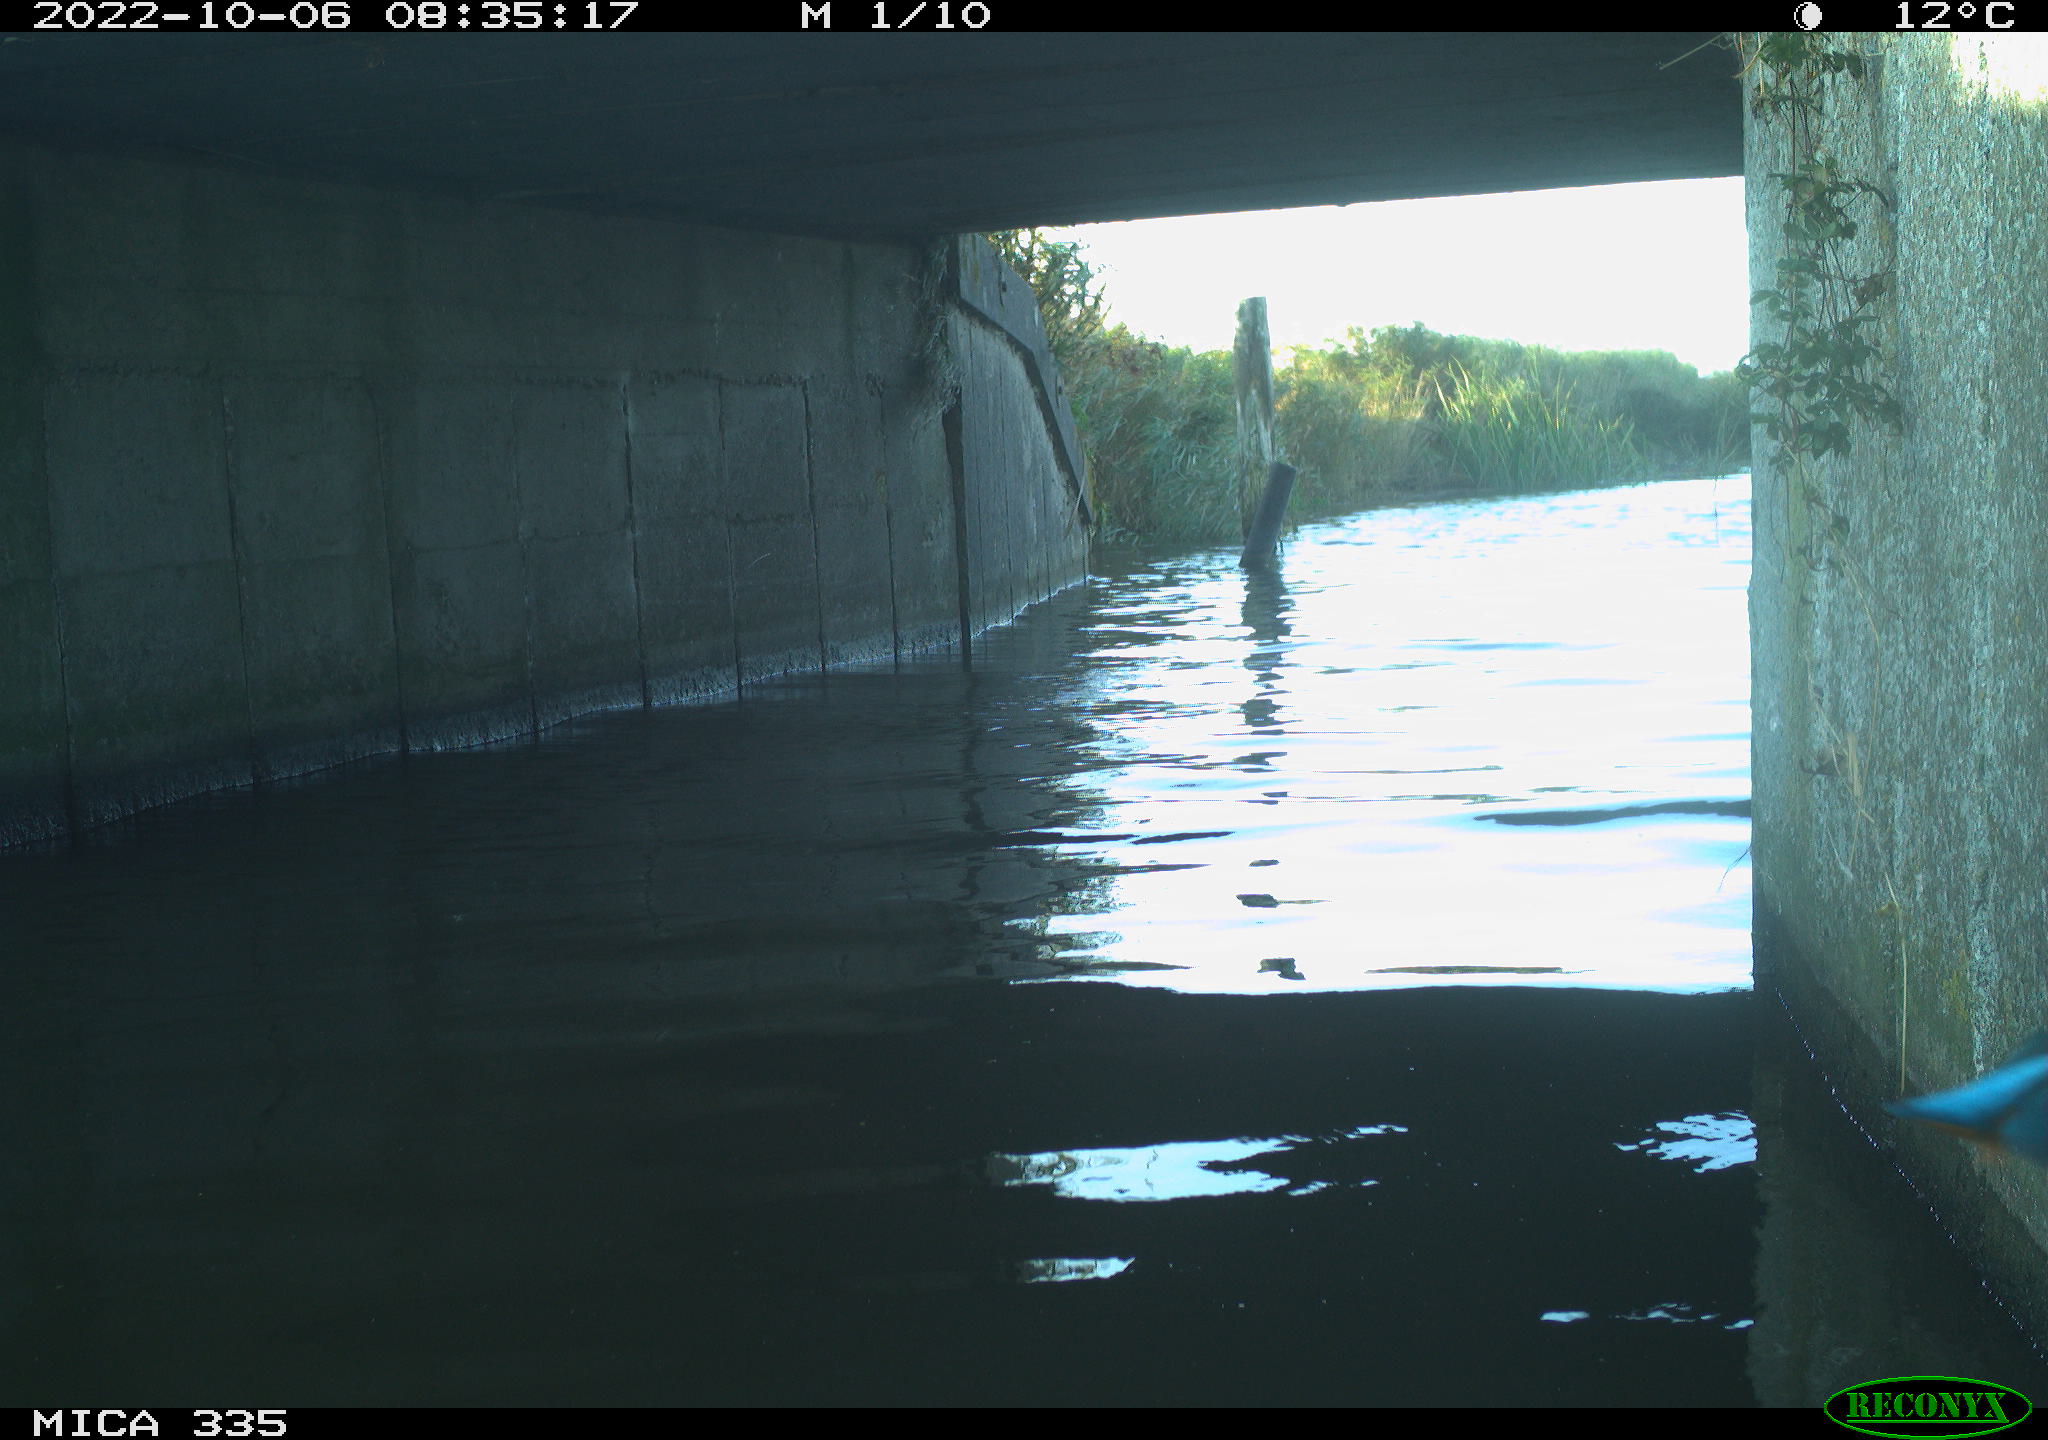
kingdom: Animalia
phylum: Chordata
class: Aves
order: Coraciiformes
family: Alcedinidae
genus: Alcedo
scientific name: Alcedo atthis
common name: Common kingfisher
